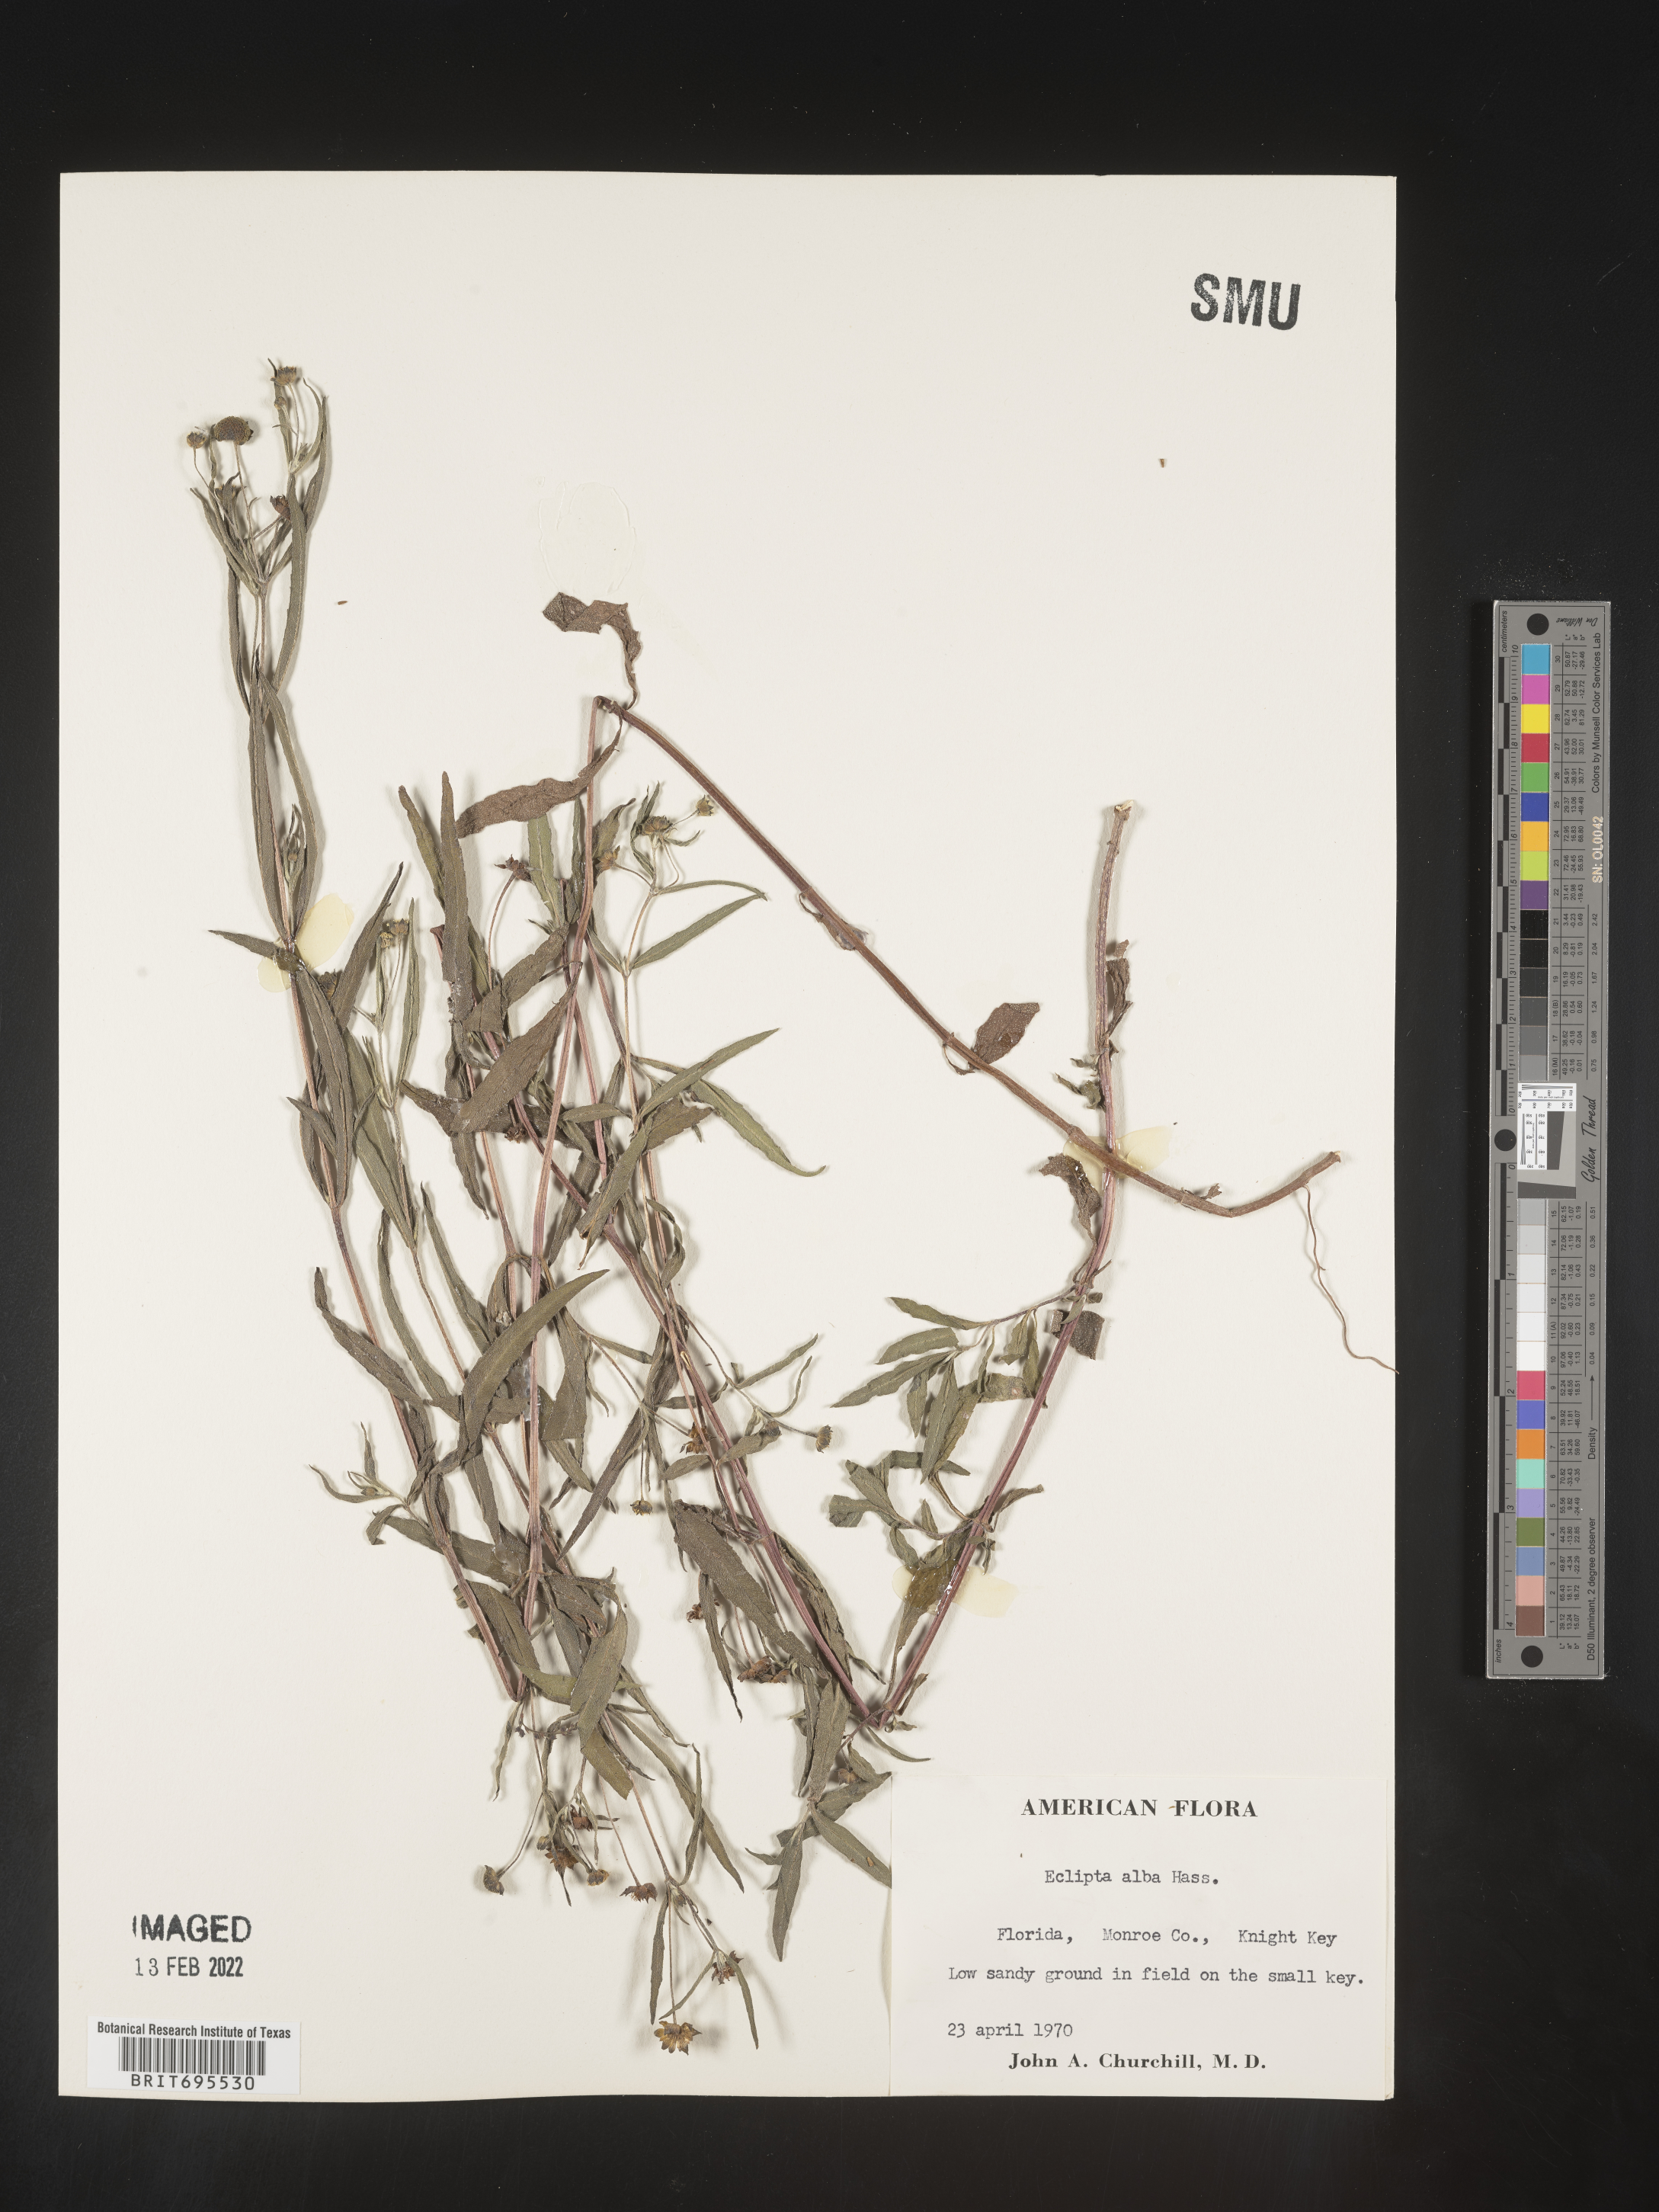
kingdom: Plantae
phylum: Tracheophyta
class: Magnoliopsida
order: Asterales
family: Asteraceae
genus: Eclipta
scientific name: Eclipta alba
